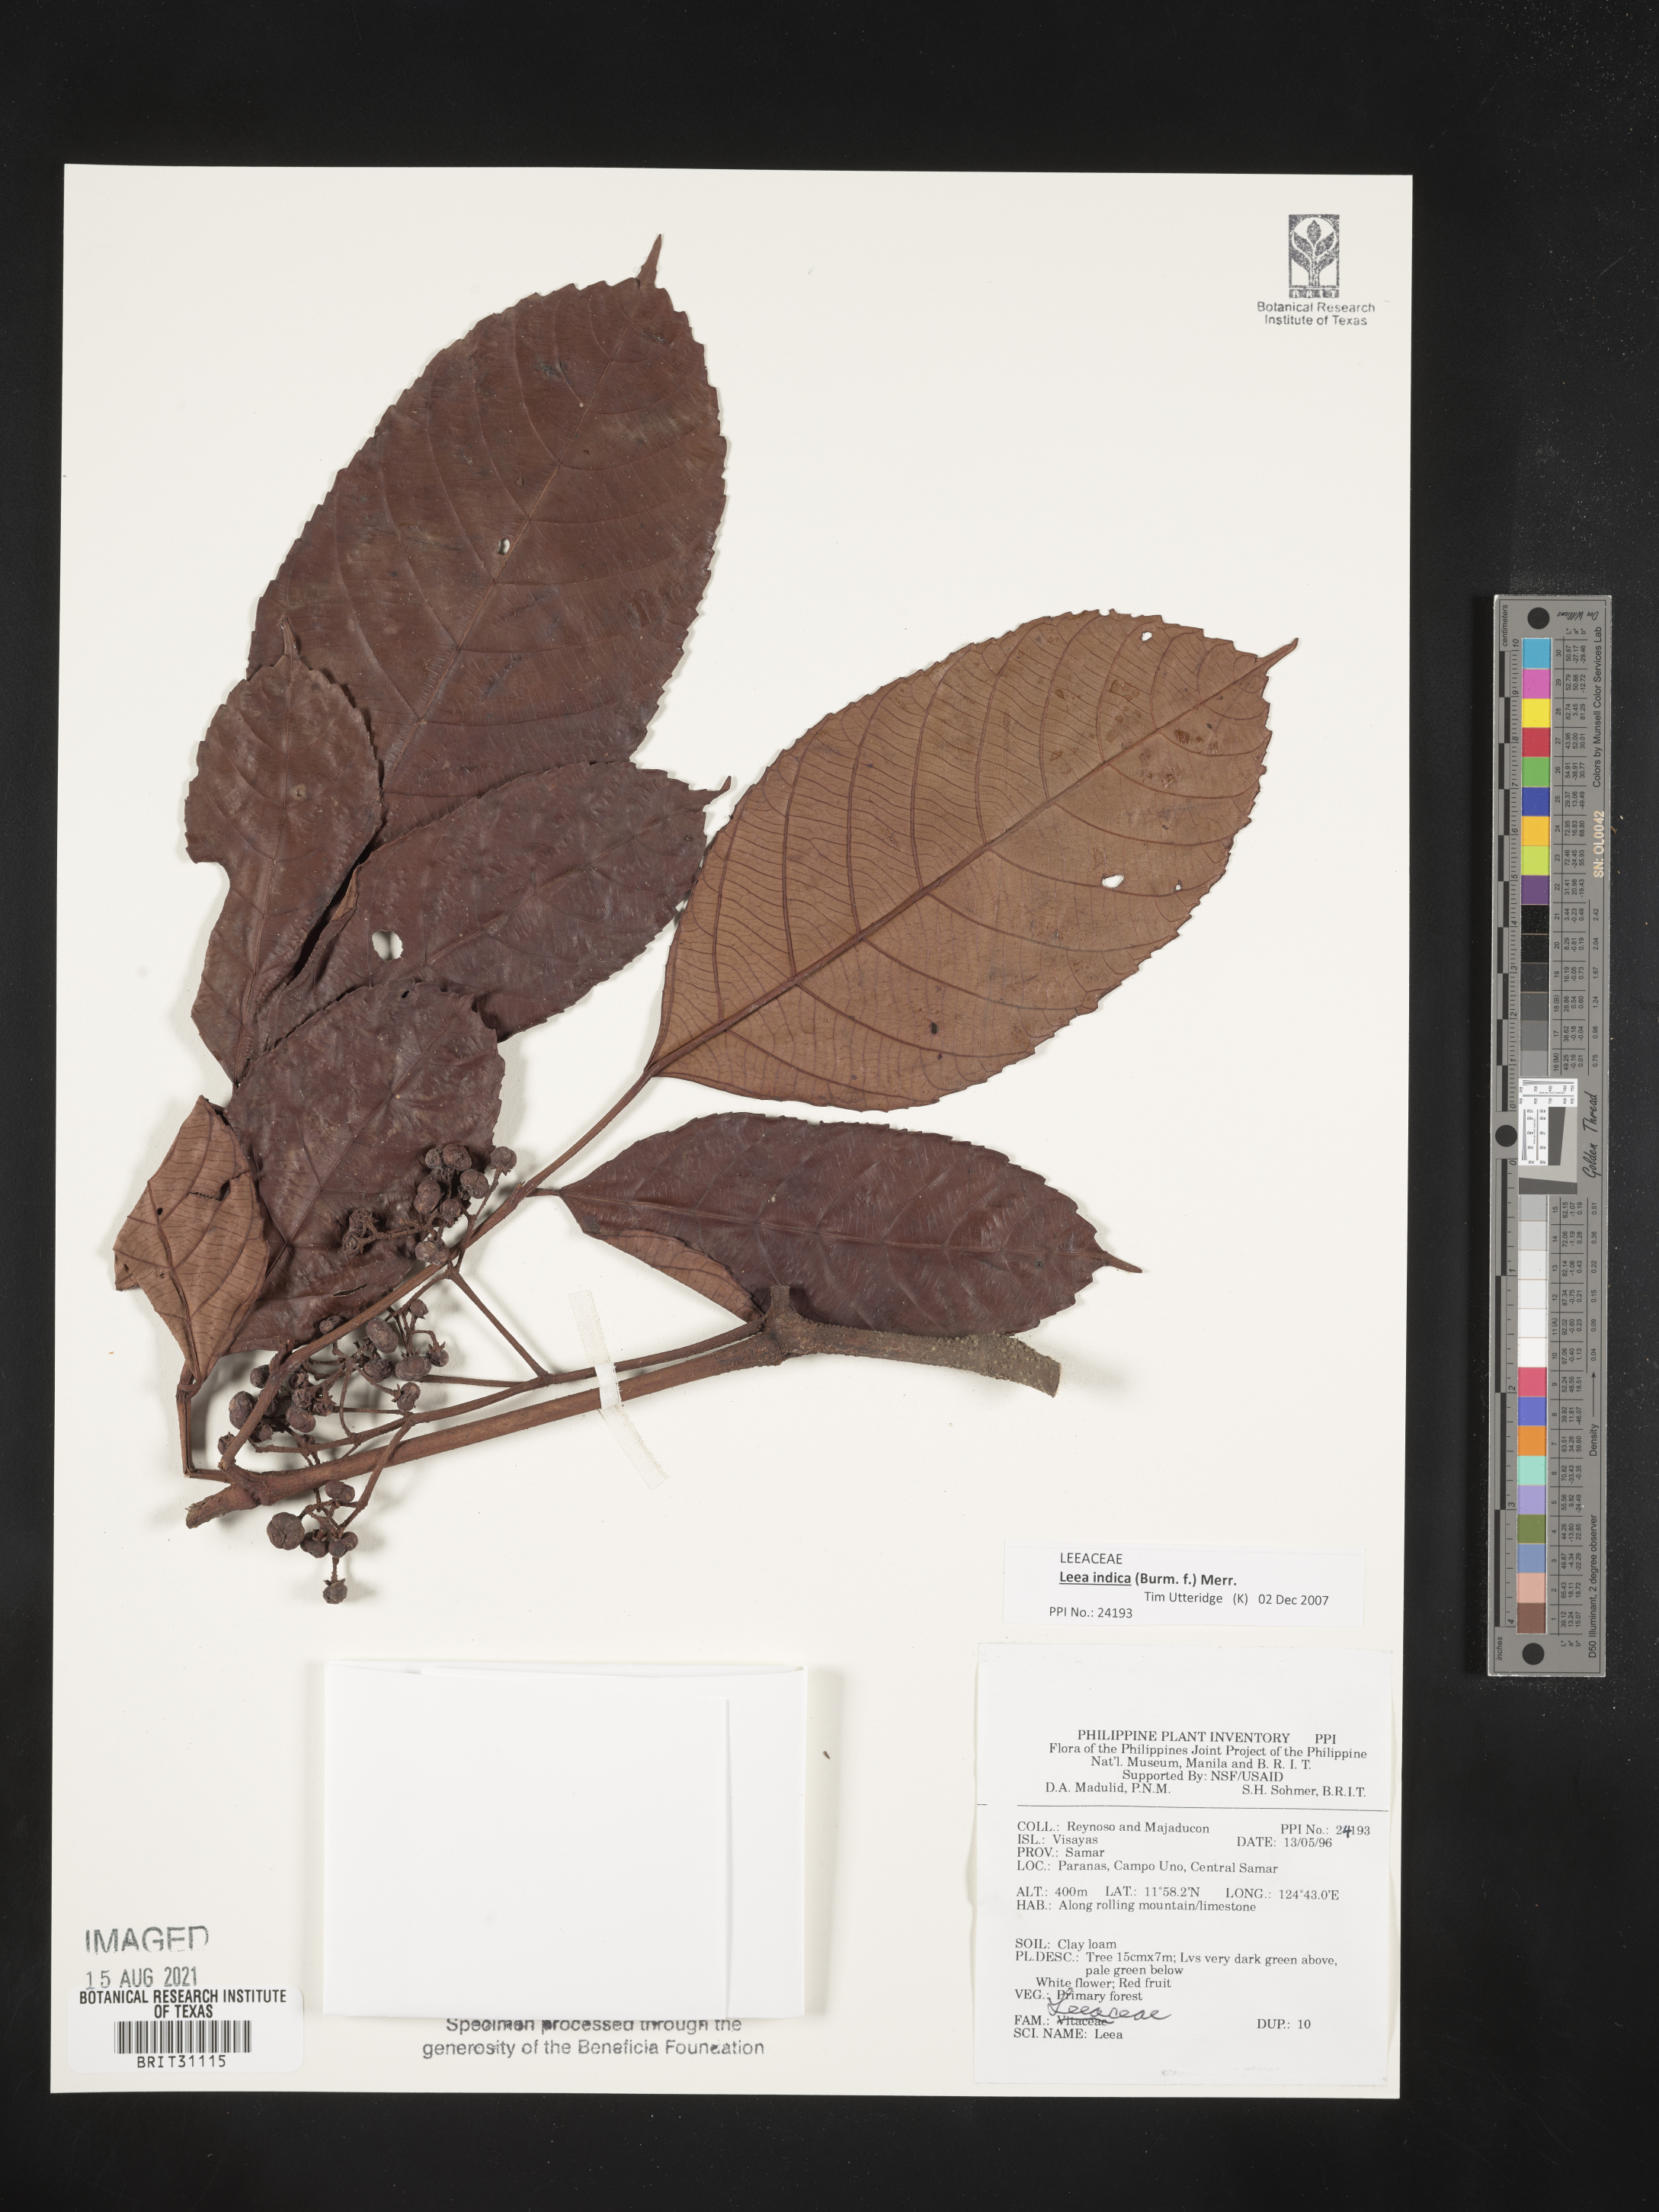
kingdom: Plantae
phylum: Tracheophyta
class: Magnoliopsida
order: Vitales
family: Vitaceae
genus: Leea
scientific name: Leea
